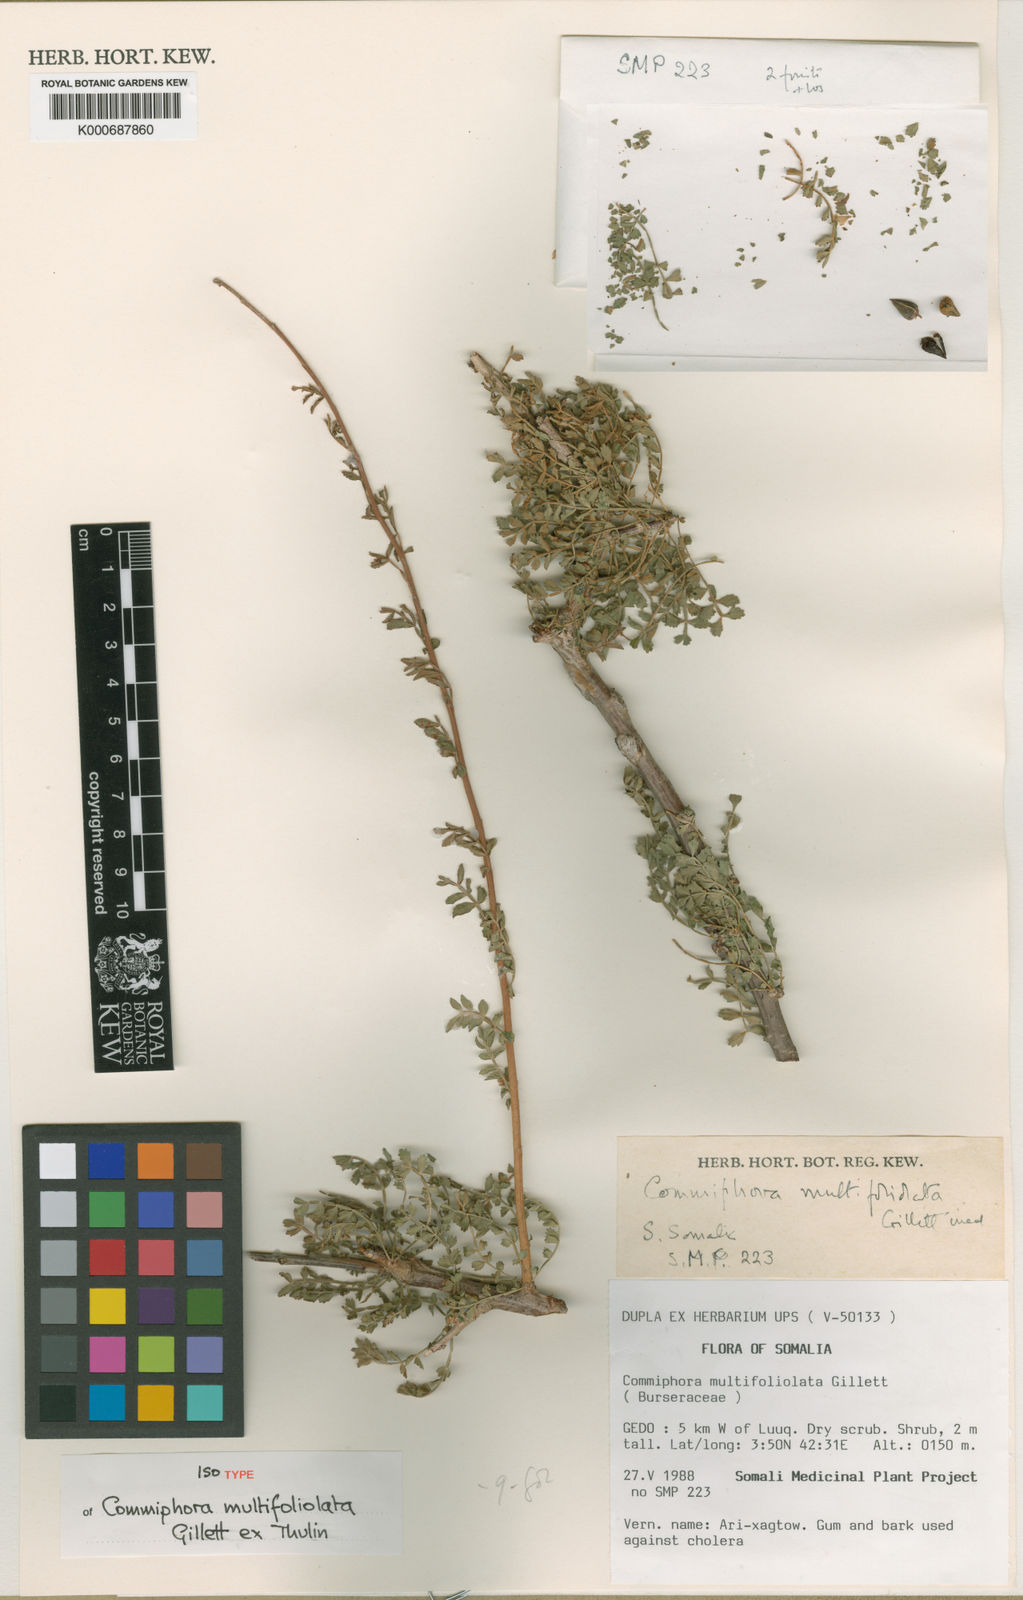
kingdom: Plantae
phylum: Tracheophyta
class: Magnoliopsida
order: Sapindales
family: Burseraceae
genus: Commiphora
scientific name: Commiphora multifoliolata
